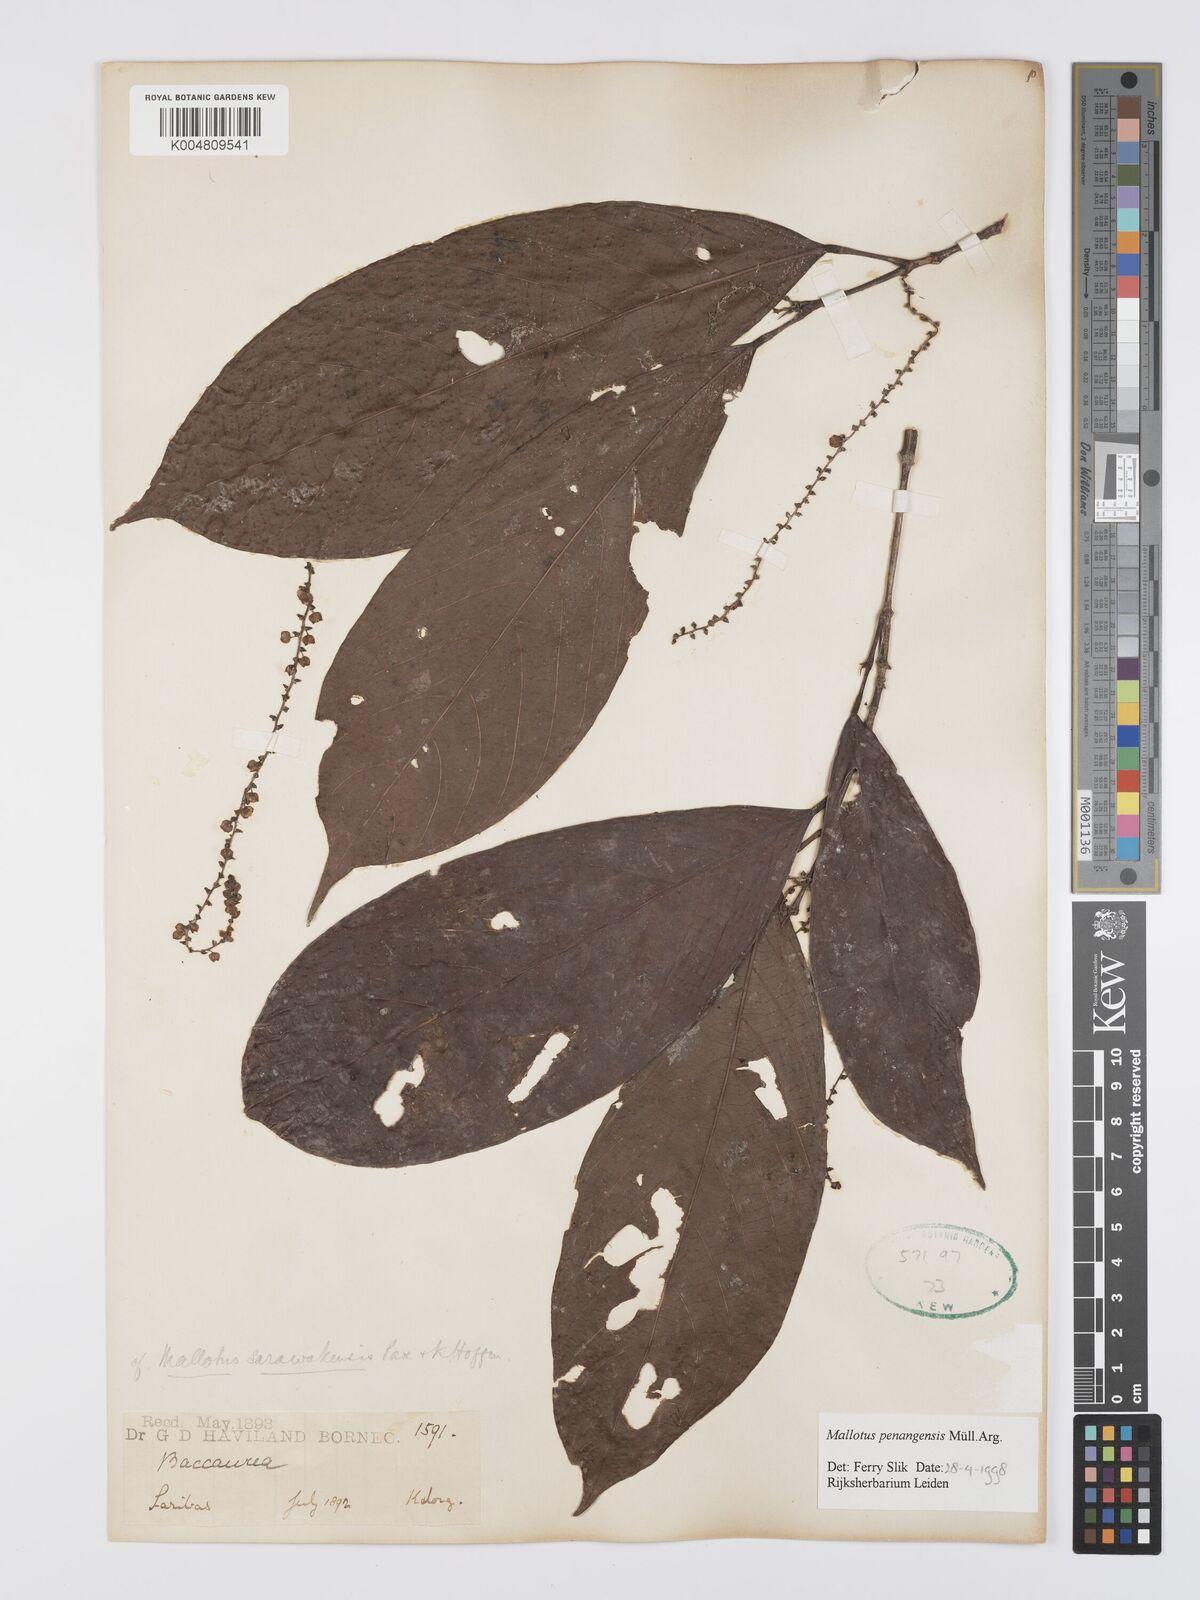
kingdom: Plantae
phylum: Tracheophyta
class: Magnoliopsida
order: Malpighiales
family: Euphorbiaceae
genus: Hancea
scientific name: Hancea penangensis
